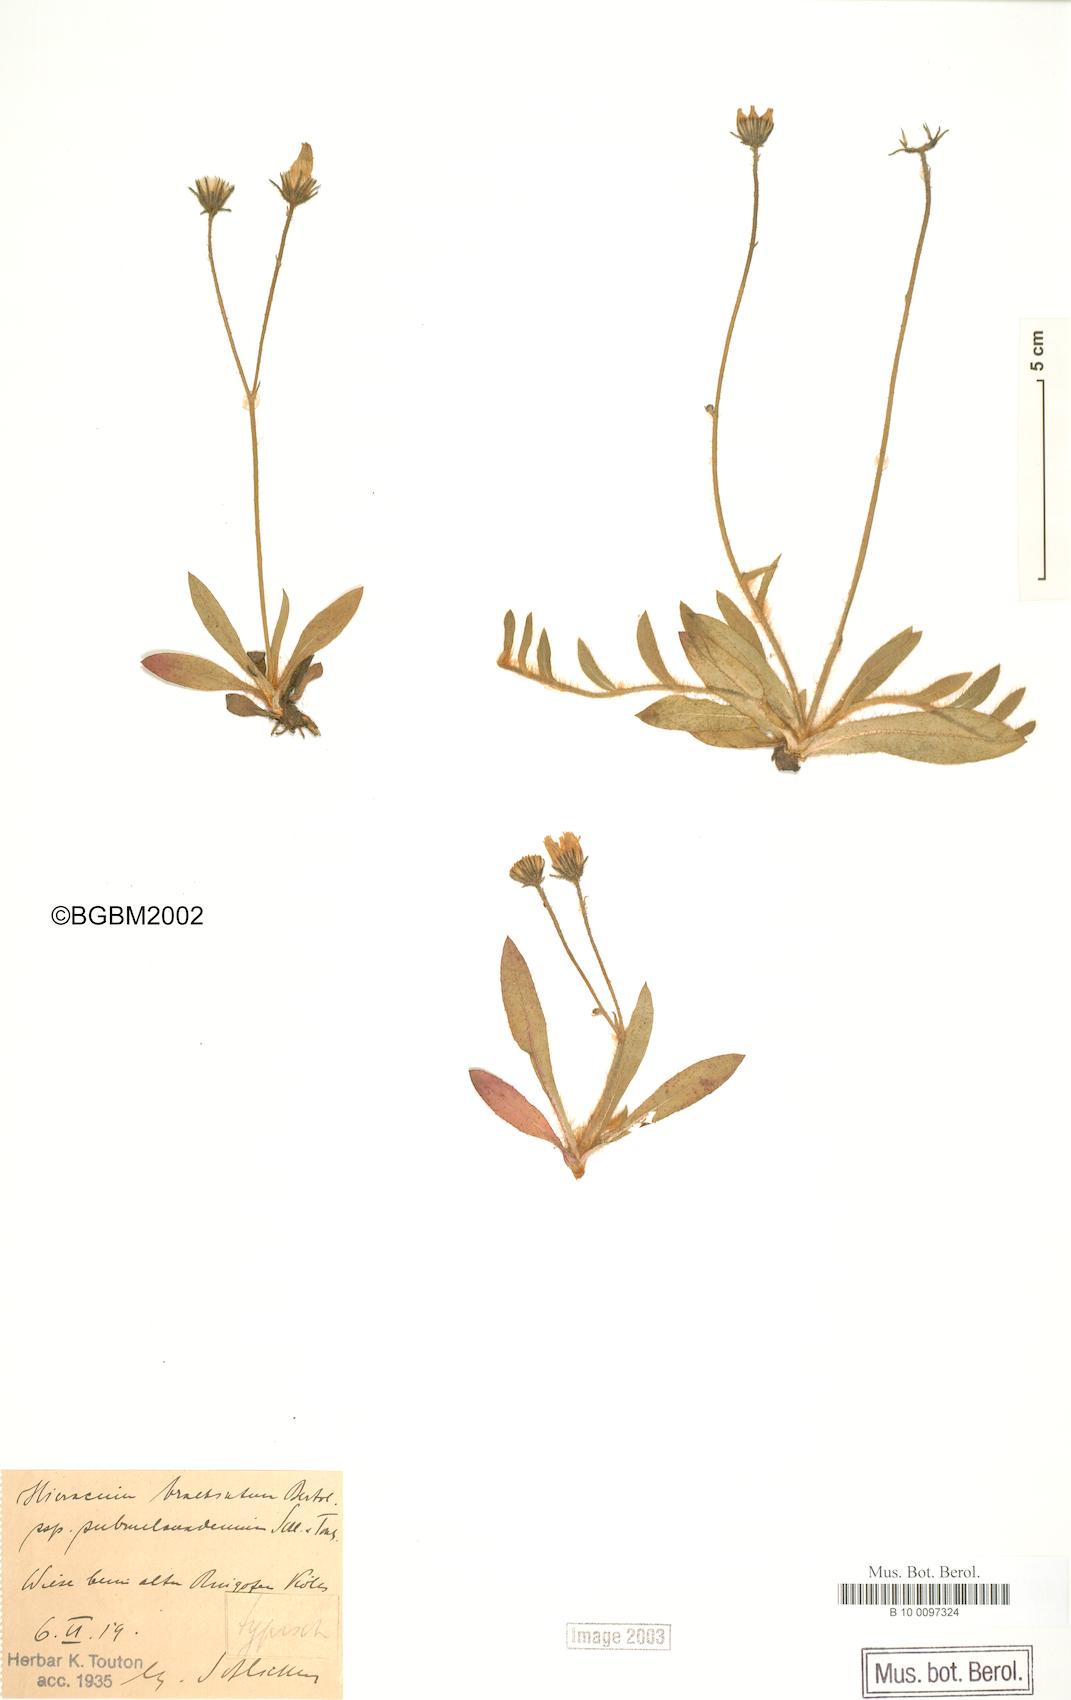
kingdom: Plantae
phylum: Tracheophyta
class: Magnoliopsida
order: Asterales
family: Asteraceae
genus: Pilosella
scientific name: Pilosella acutifolia
